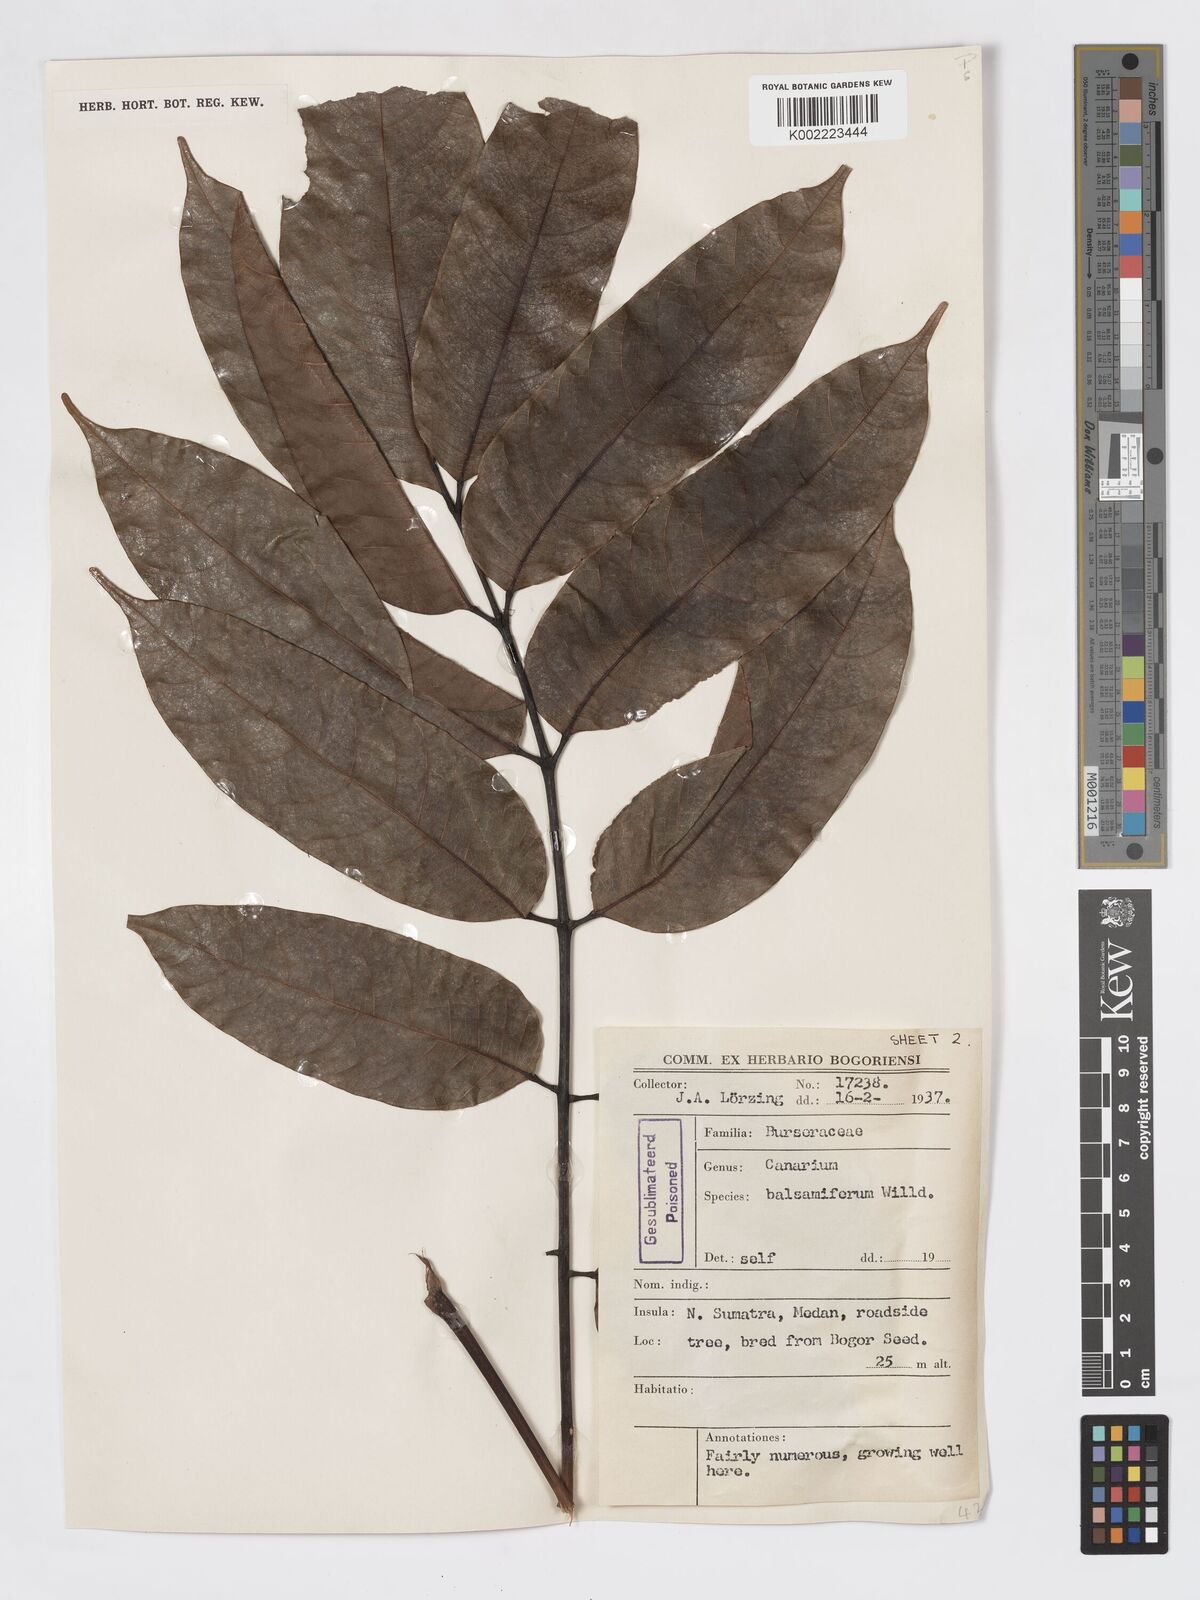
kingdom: Plantae
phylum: Tracheophyta
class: Magnoliopsida
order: Sapindales
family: Burseraceae
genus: Canarium
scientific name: Canarium
